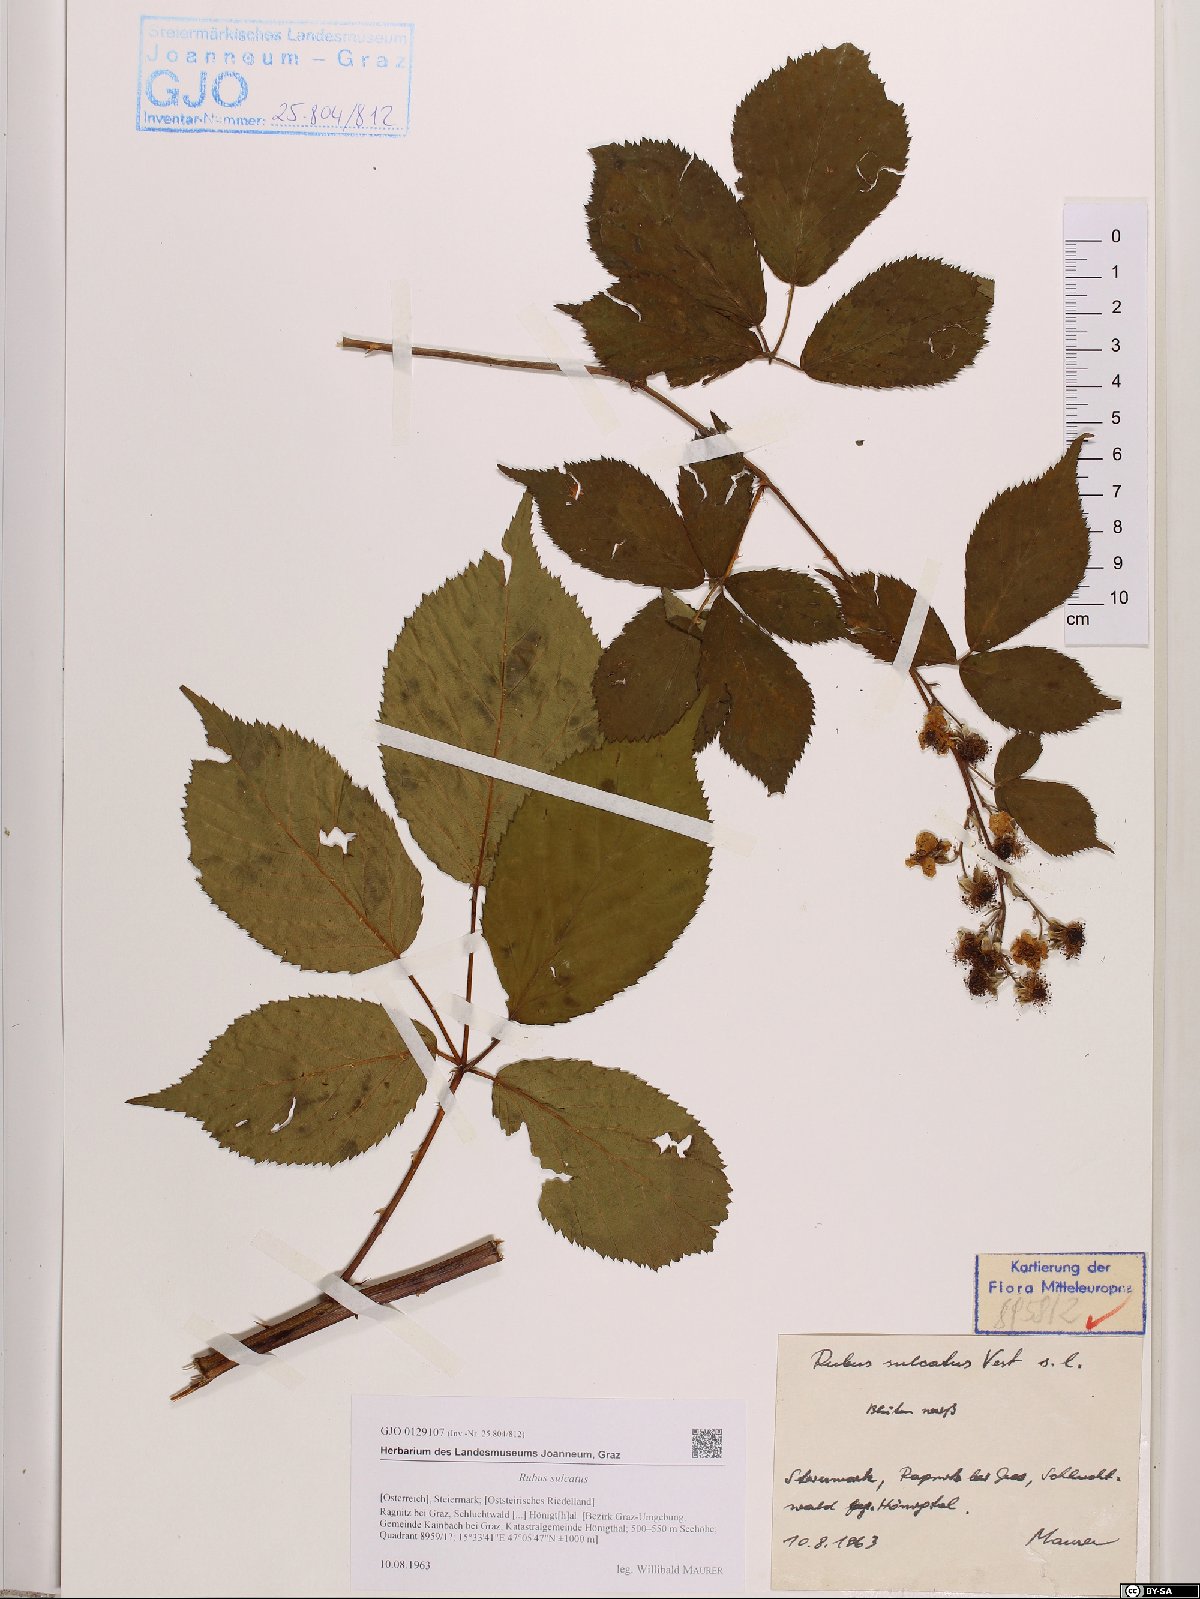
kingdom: Plantae
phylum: Tracheophyta
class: Magnoliopsida
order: Rosales
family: Rosaceae
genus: Rubus
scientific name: Rubus sulcatus
